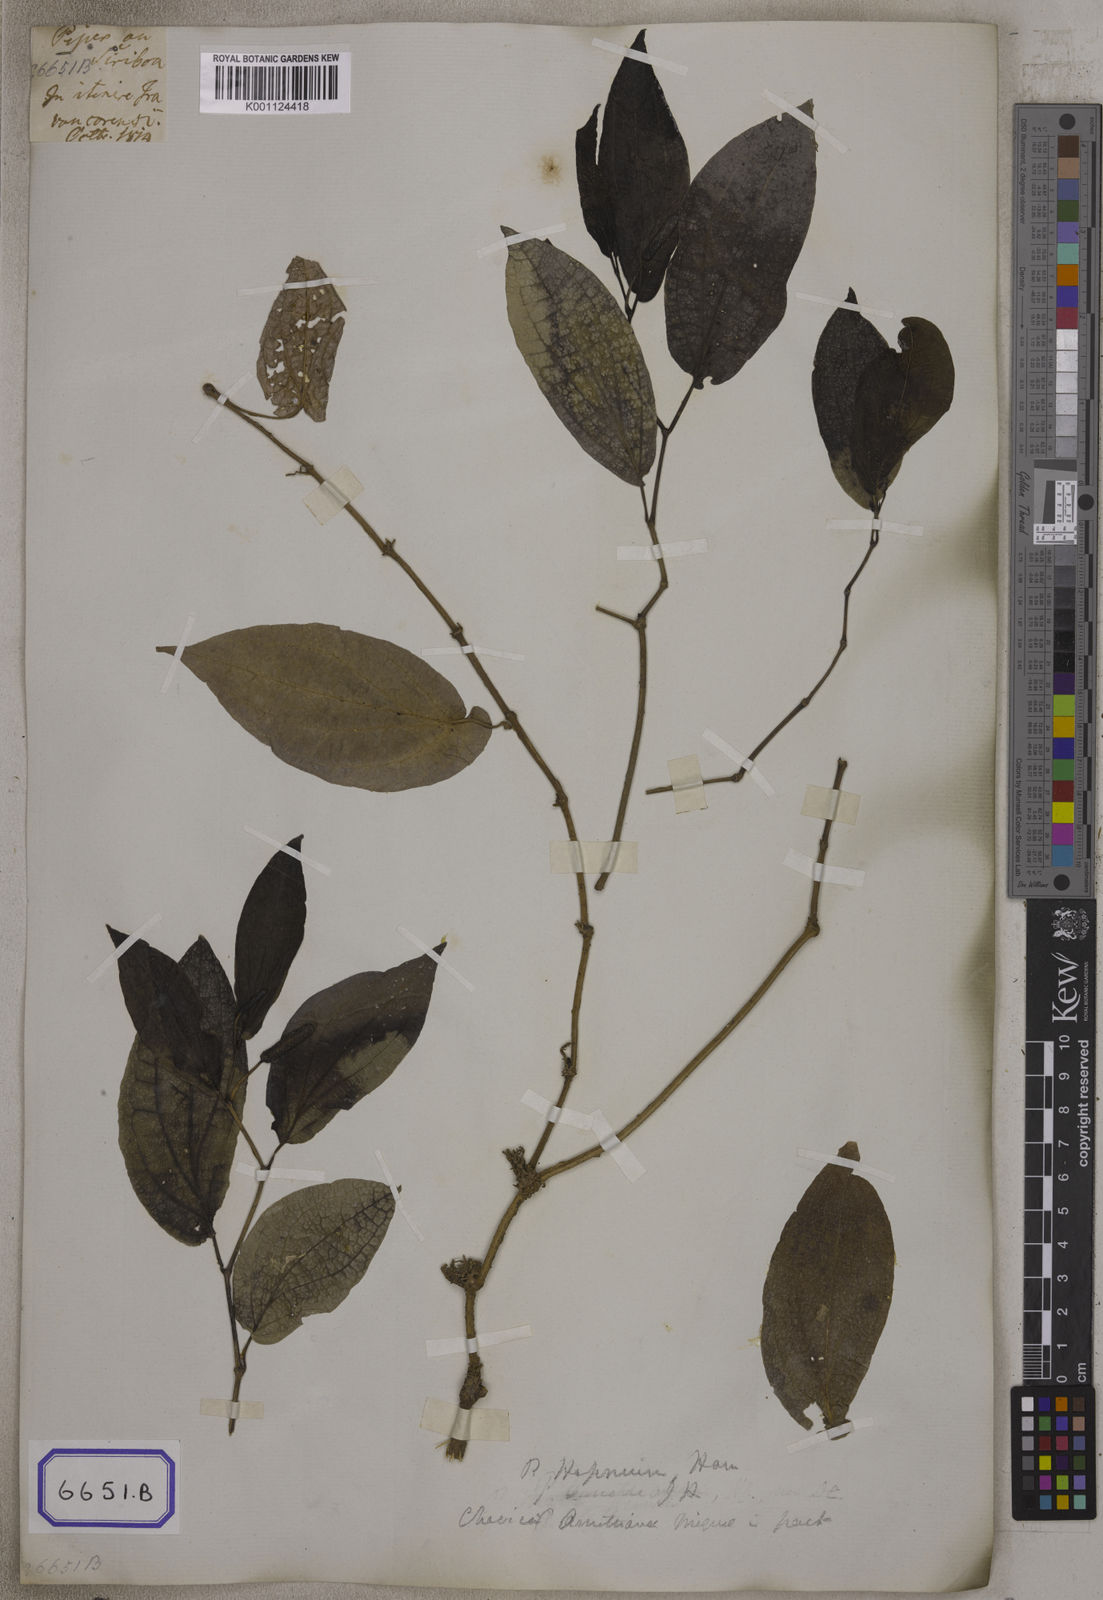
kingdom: Plantae
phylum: Tracheophyta
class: Magnoliopsida
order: Piperales
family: Piperaceae
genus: Piper
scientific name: Piper
